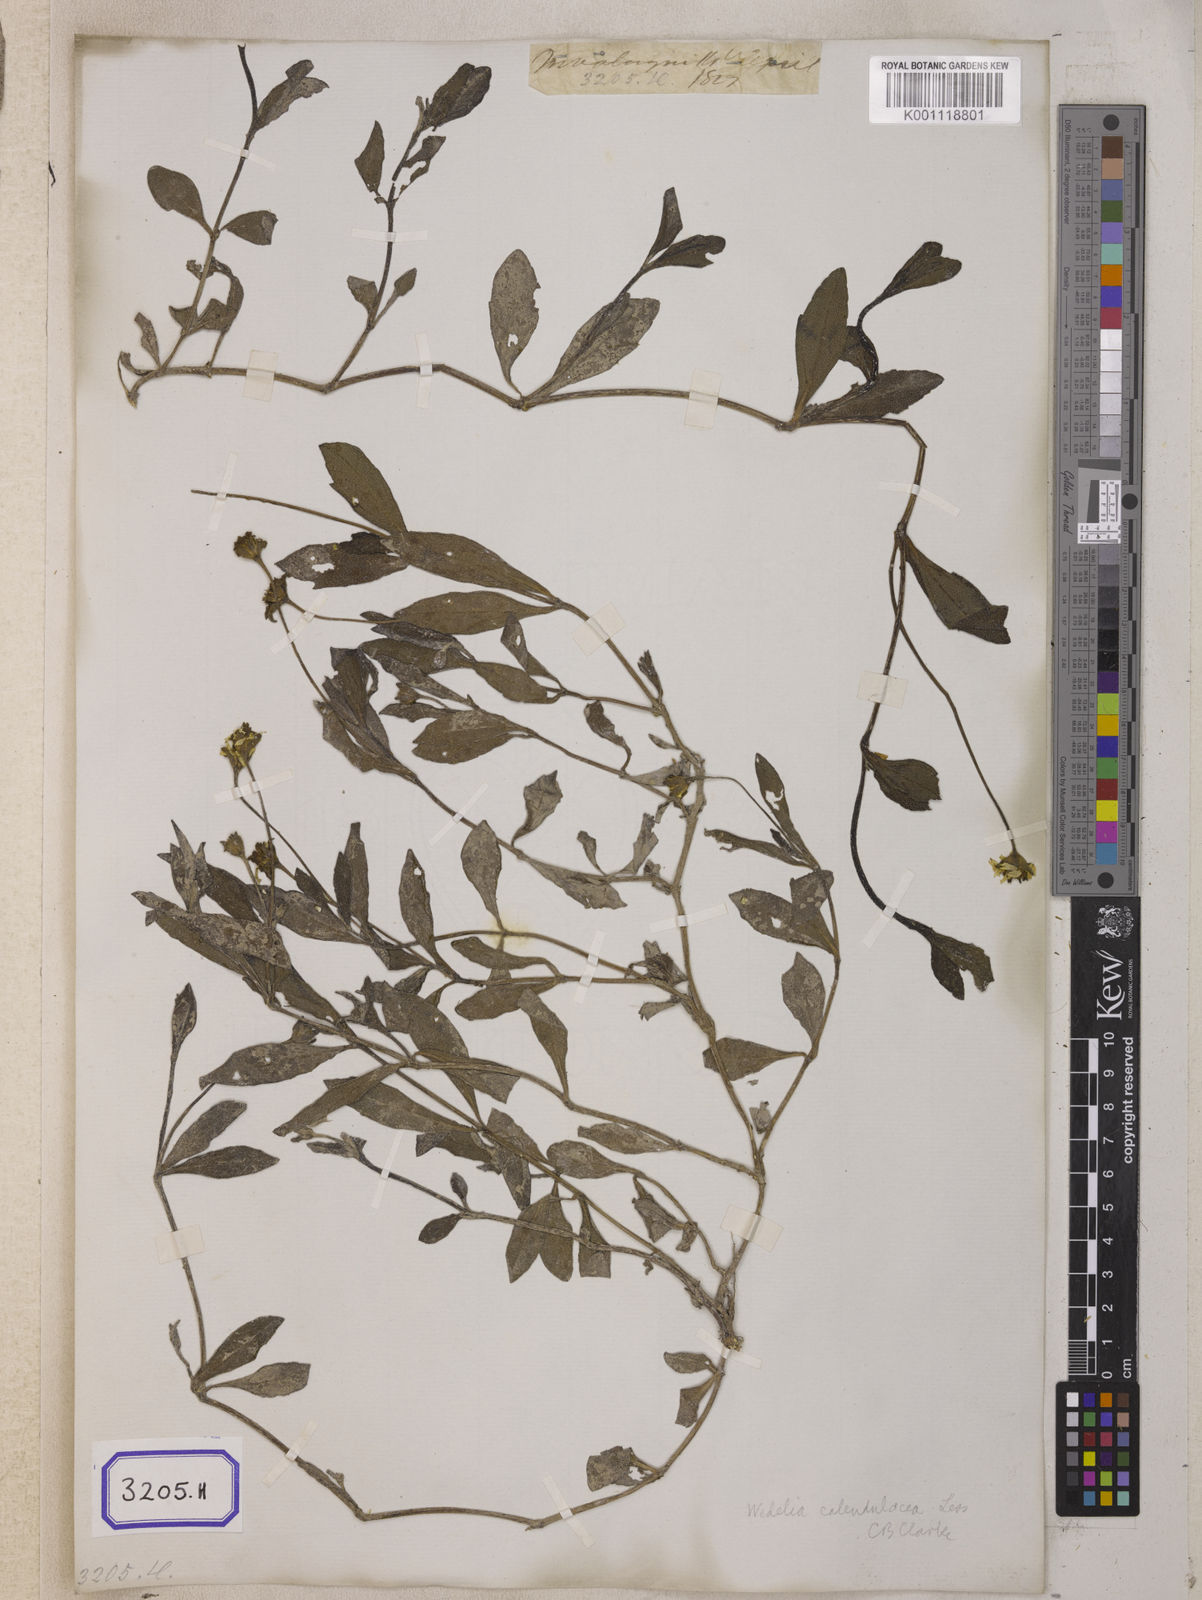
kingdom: Plantae
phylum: Tracheophyta
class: Magnoliopsida
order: Asterales
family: Asteraceae
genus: Sphagneticola
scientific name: Sphagneticola calendulacea
